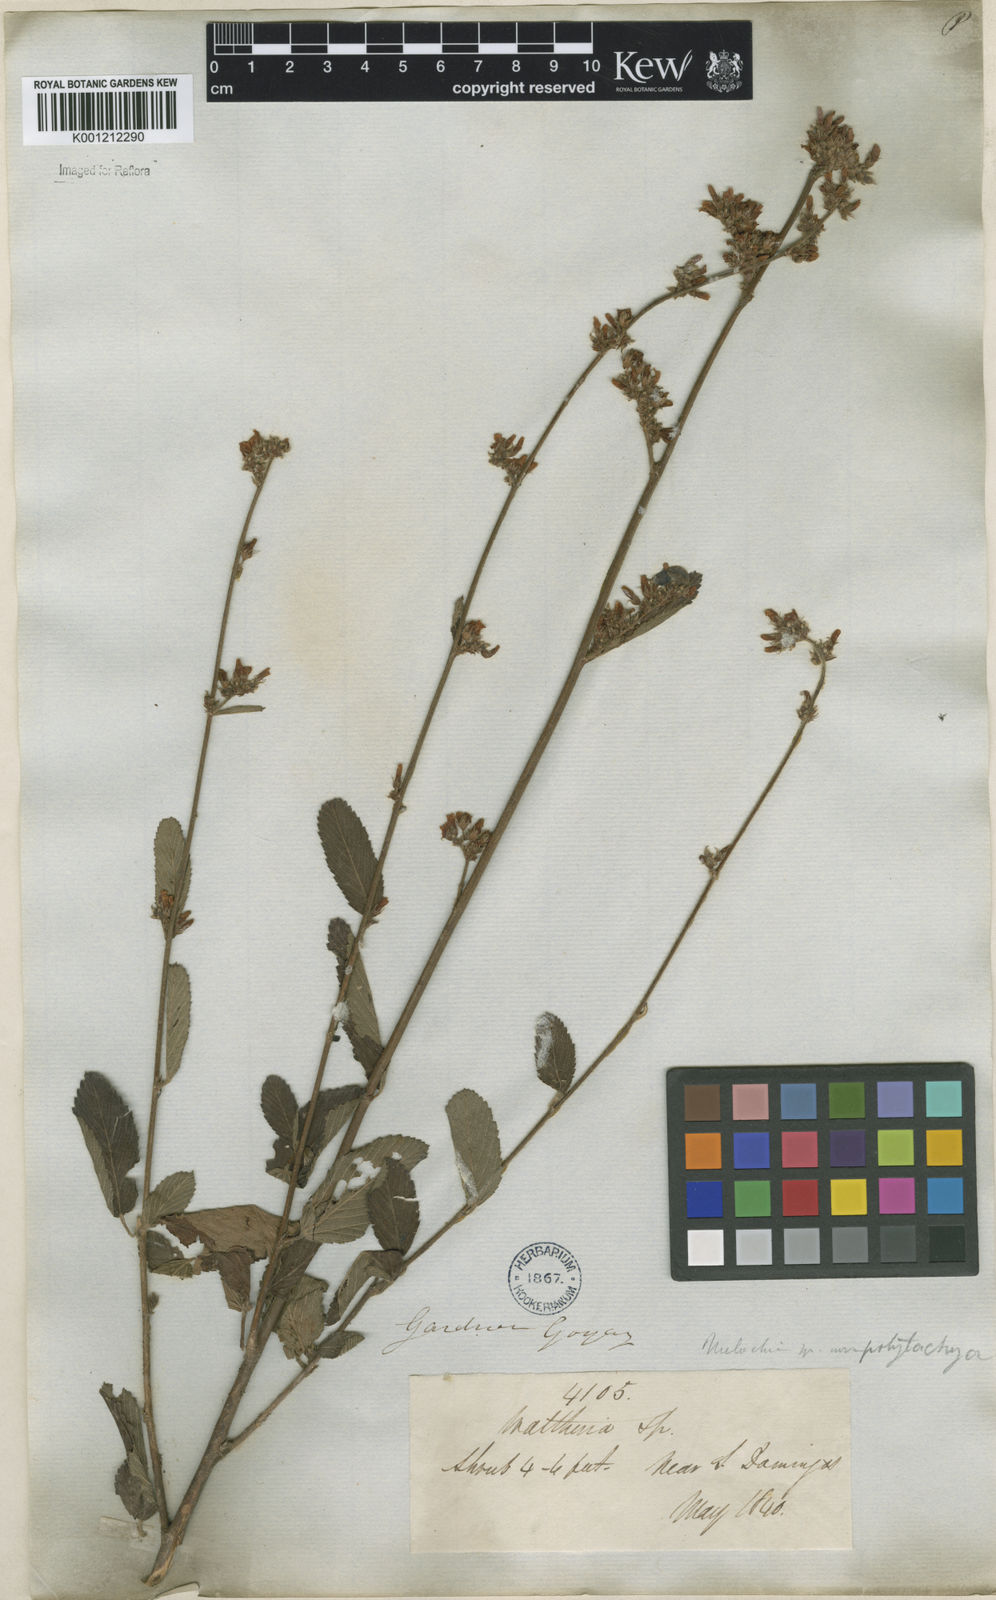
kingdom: Plantae
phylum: Tracheophyta
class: Magnoliopsida
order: Malvales
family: Malvaceae
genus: Melochia
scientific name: Melochia pilosa
